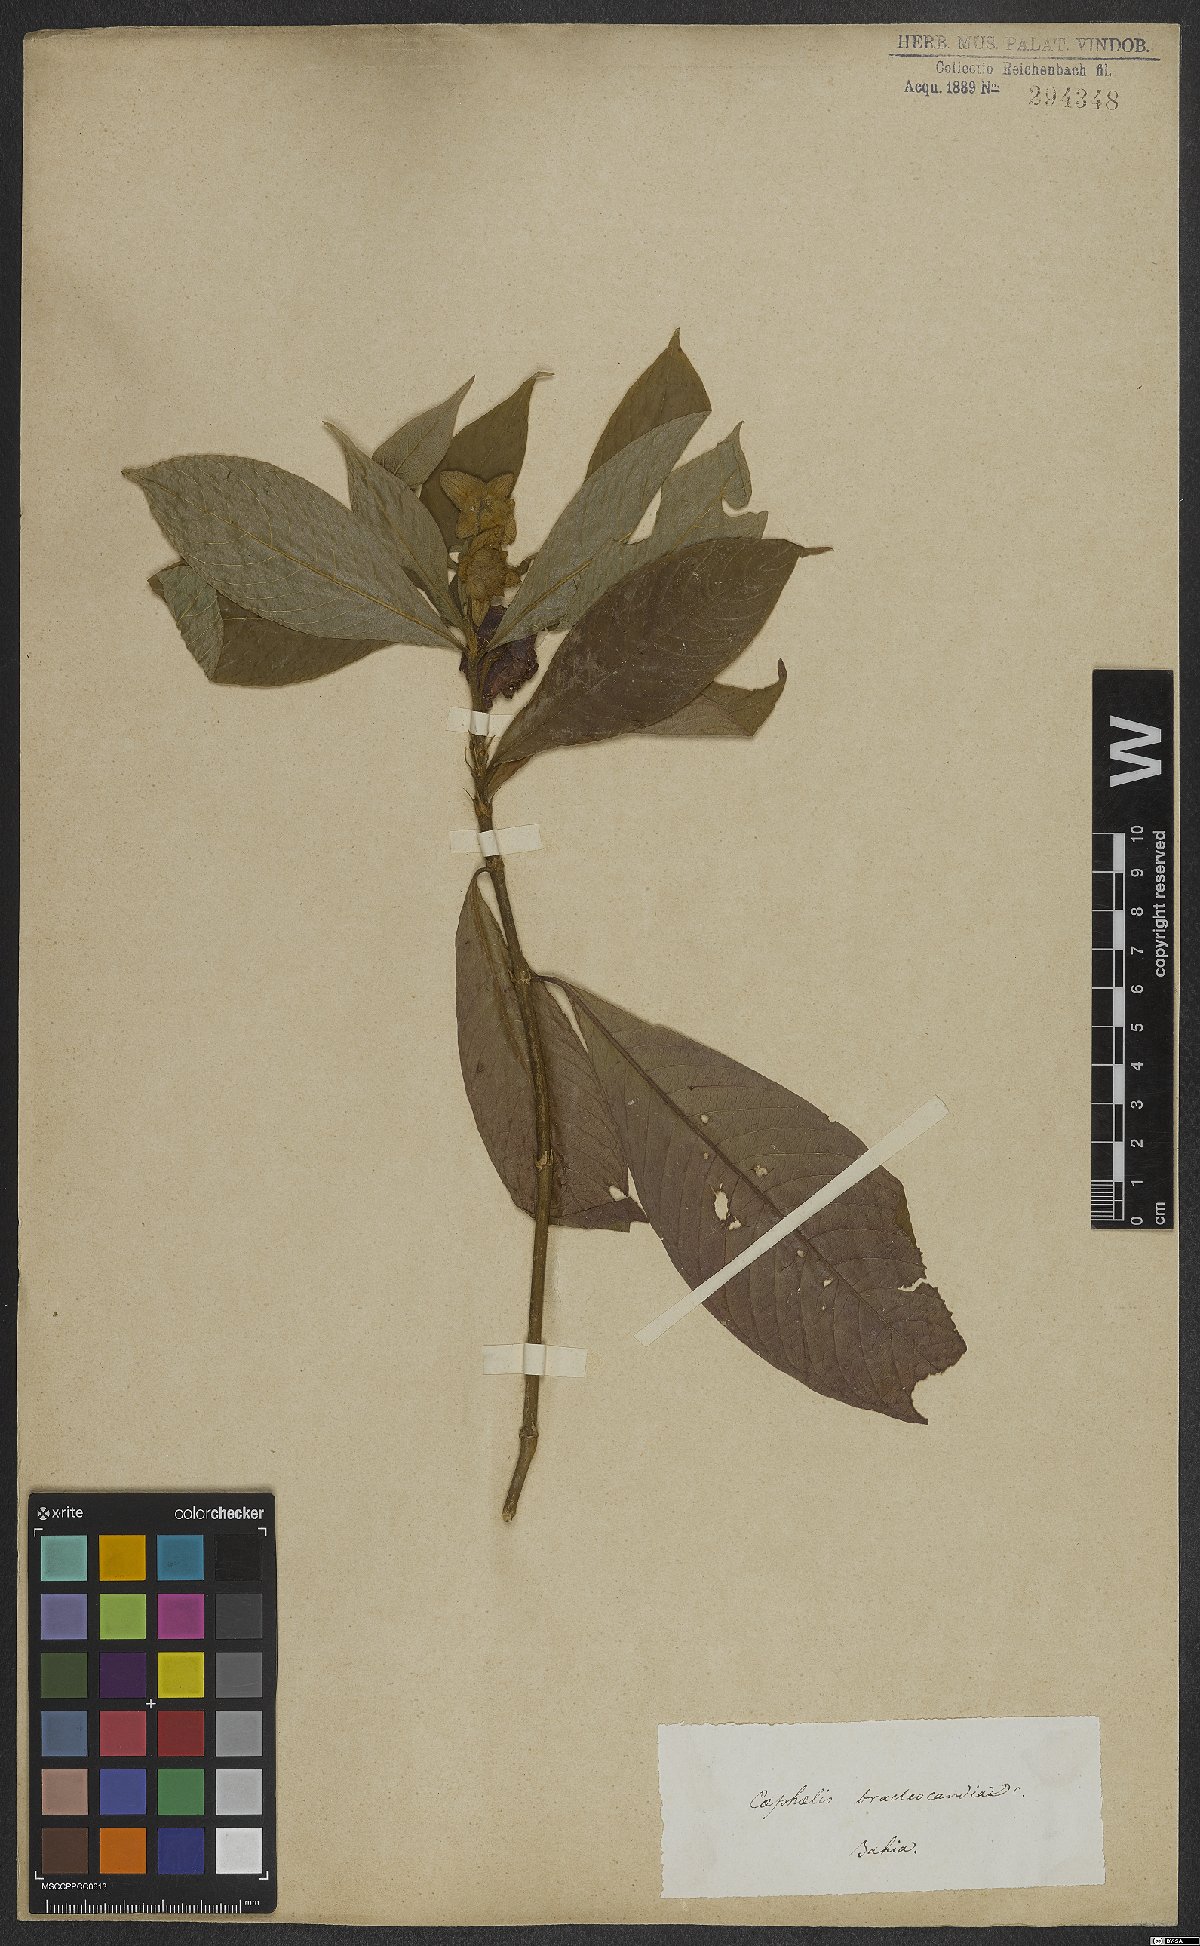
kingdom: Plantae
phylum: Tracheophyta
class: Magnoliopsida
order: Gentianales
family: Rubiaceae
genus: Palicourea
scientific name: Palicourea bracteocardia
